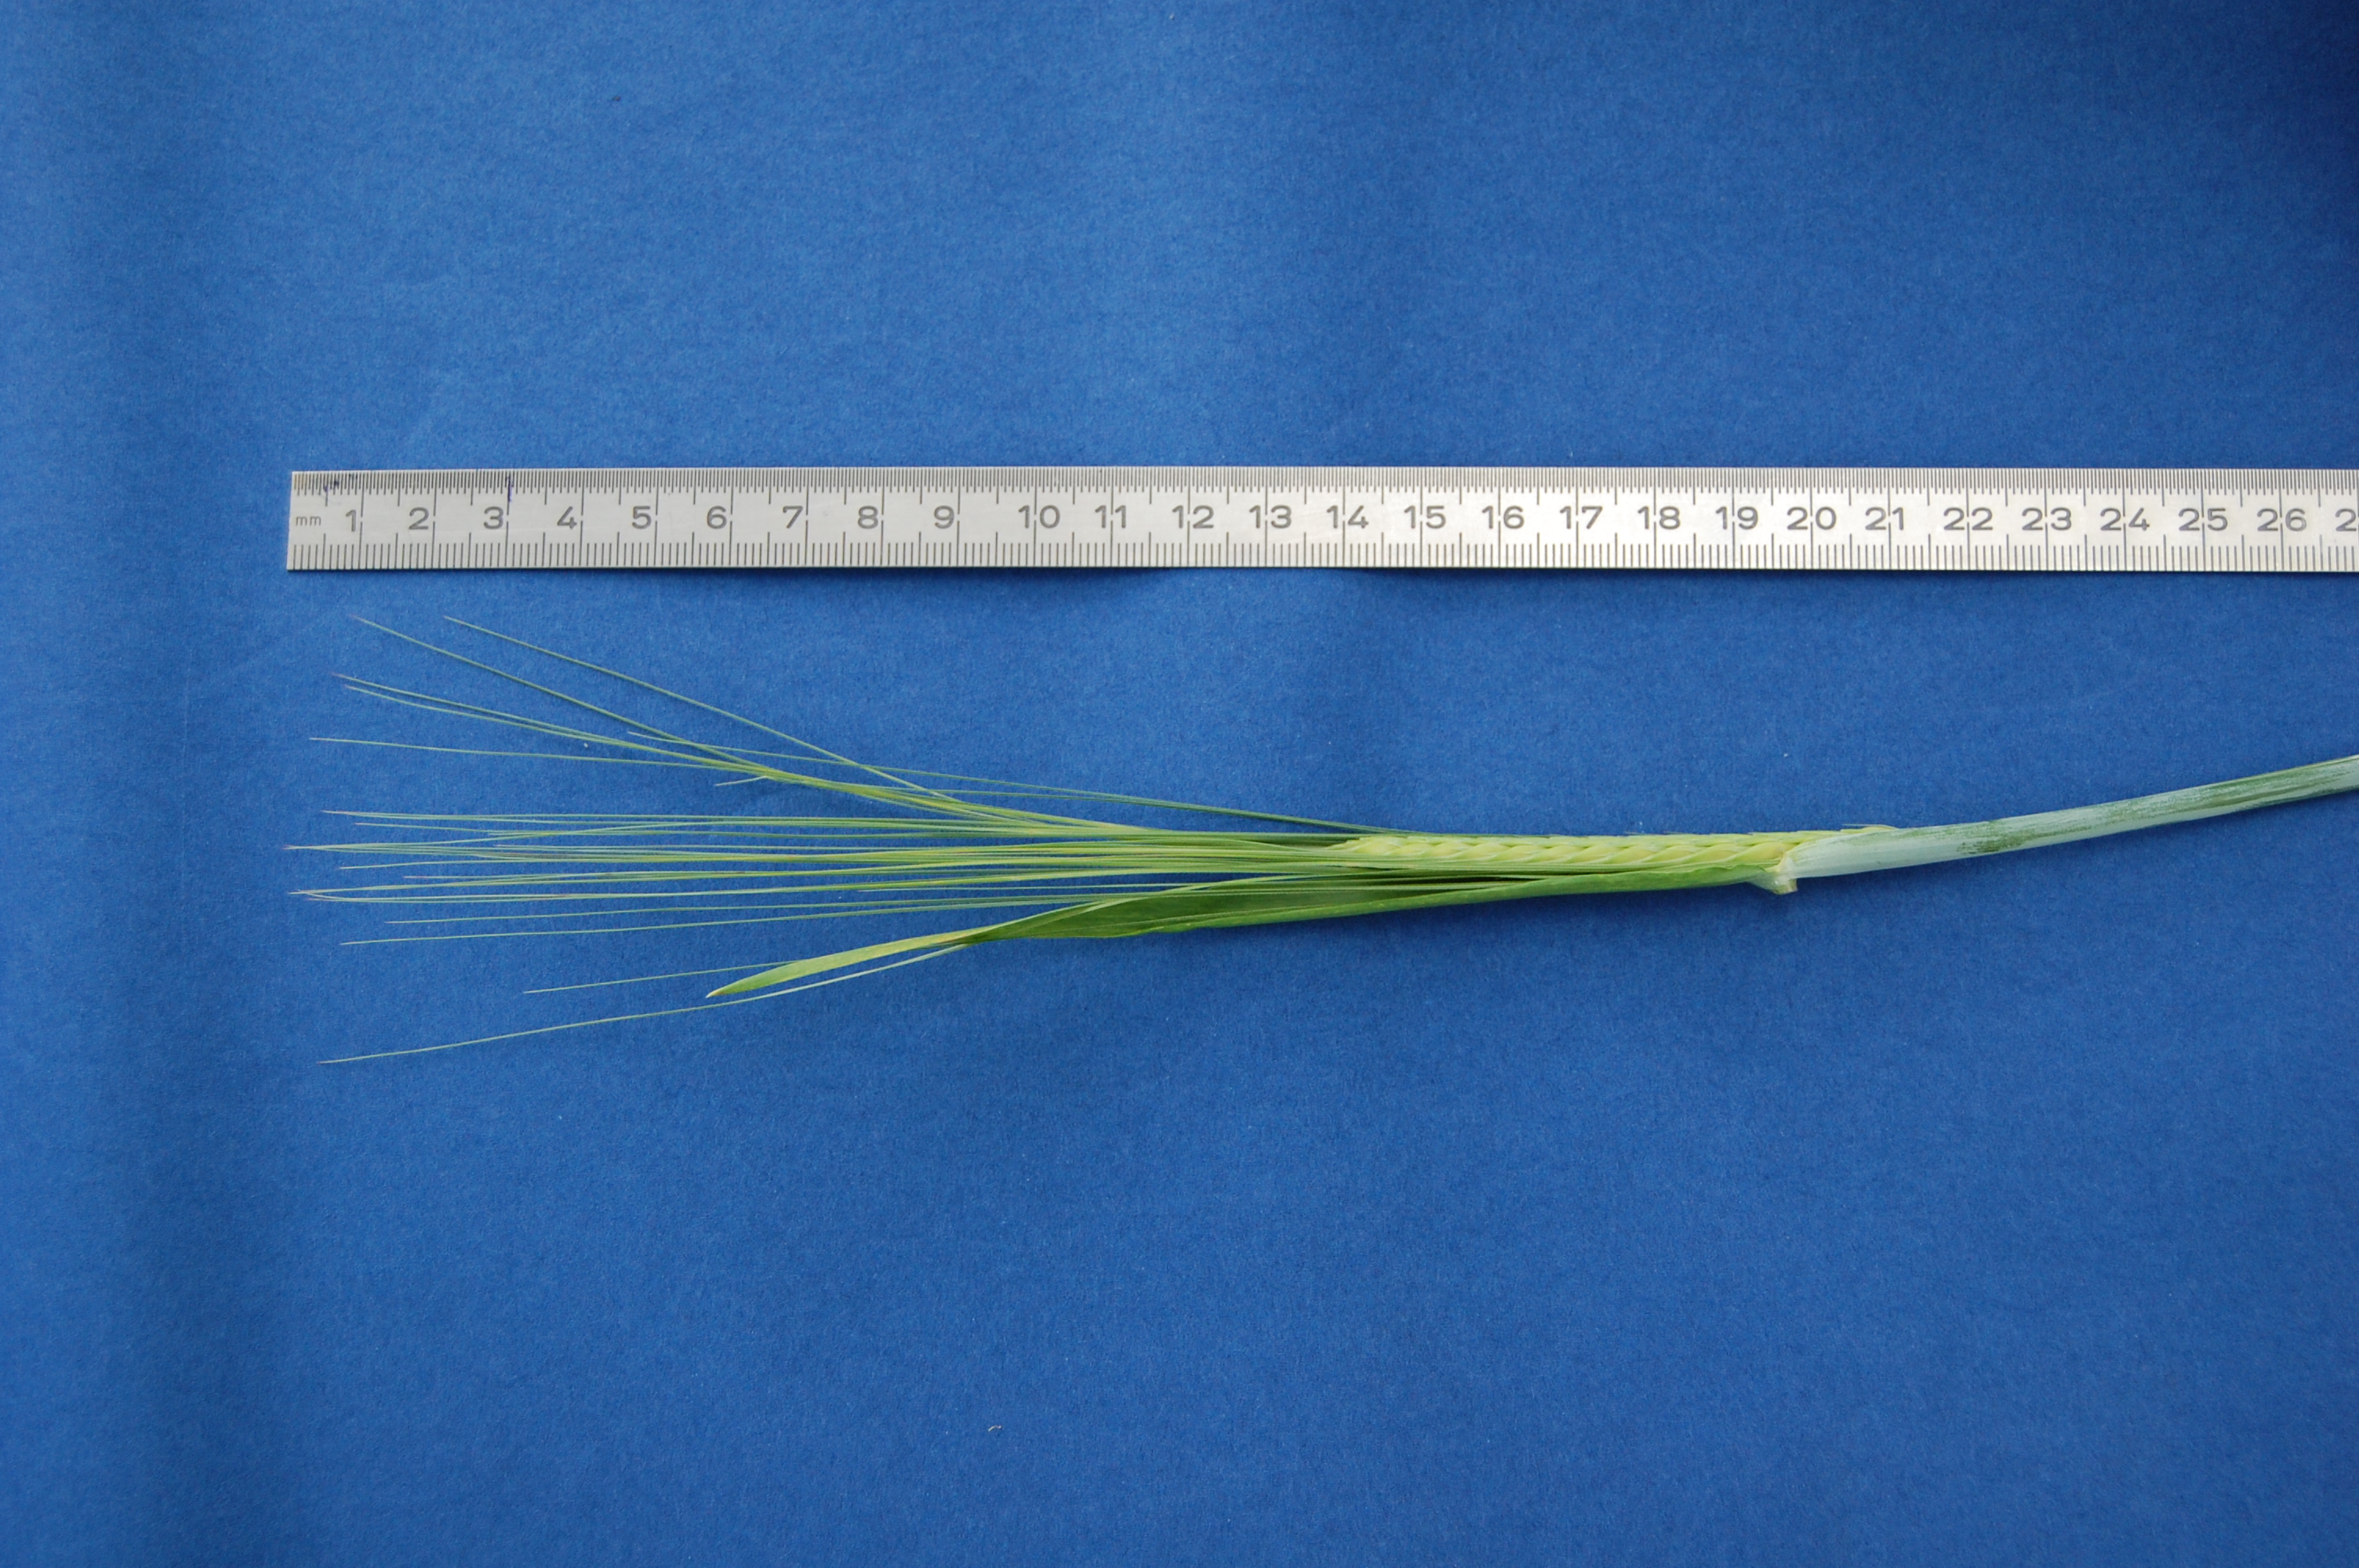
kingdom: Plantae
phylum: Tracheophyta
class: Liliopsida
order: Poales
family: Poaceae
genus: Hordeum
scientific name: Hordeum vulgare
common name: Common barley
